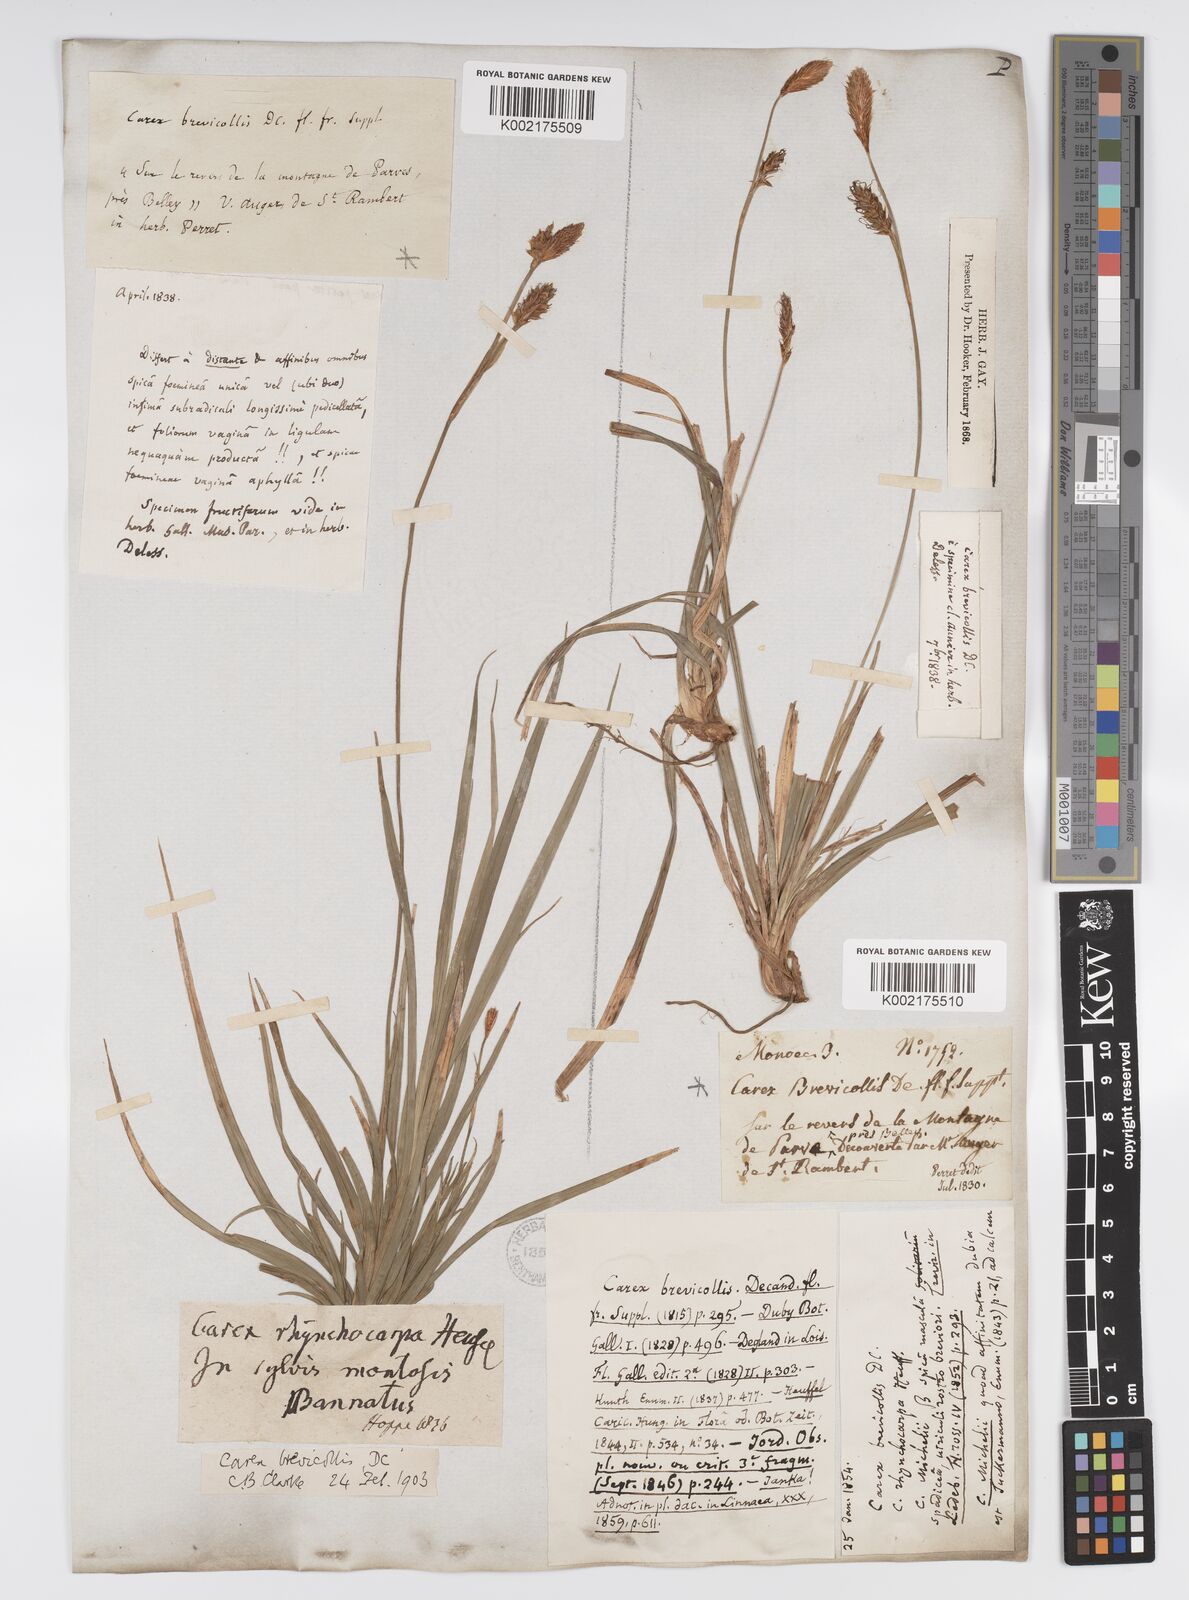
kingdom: Plantae
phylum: Tracheophyta
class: Liliopsida
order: Poales
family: Cyperaceae
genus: Carex
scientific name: Carex brevicollis
